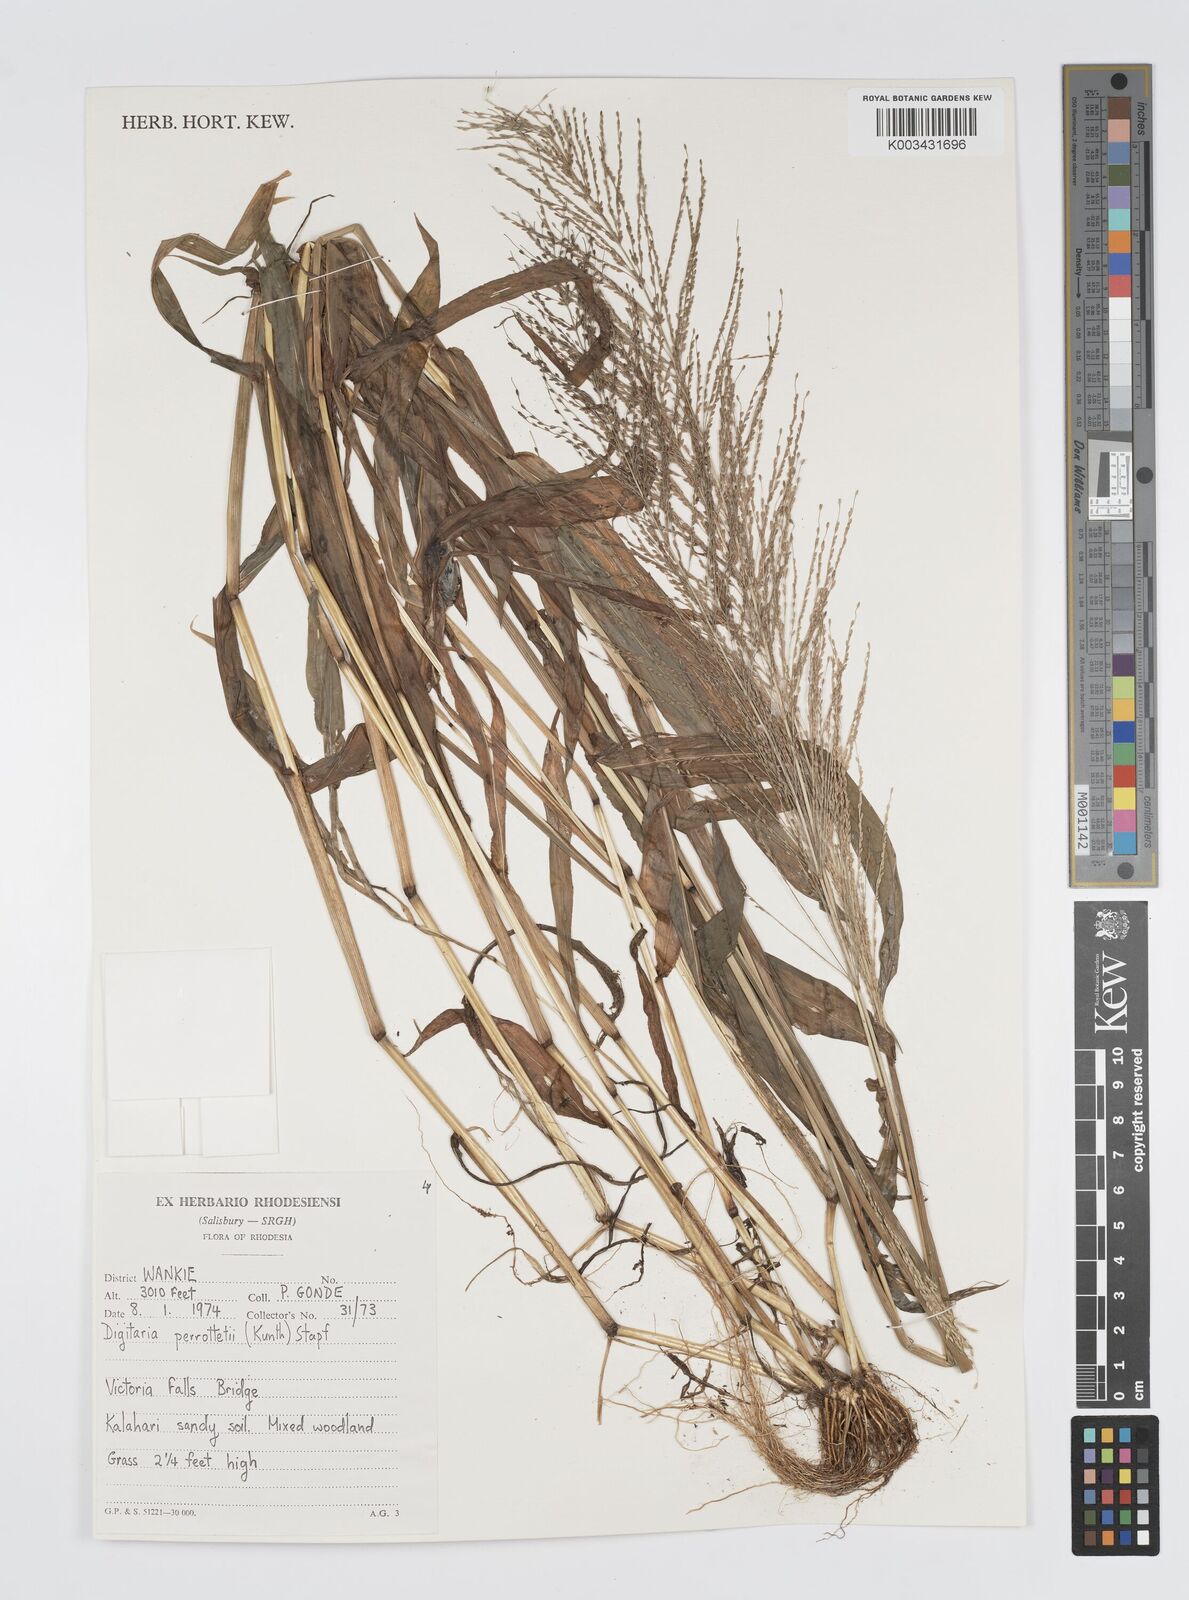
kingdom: Plantae
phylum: Tracheophyta
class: Liliopsida
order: Poales
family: Poaceae
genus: Digitaria
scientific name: Digitaria perrottetii
